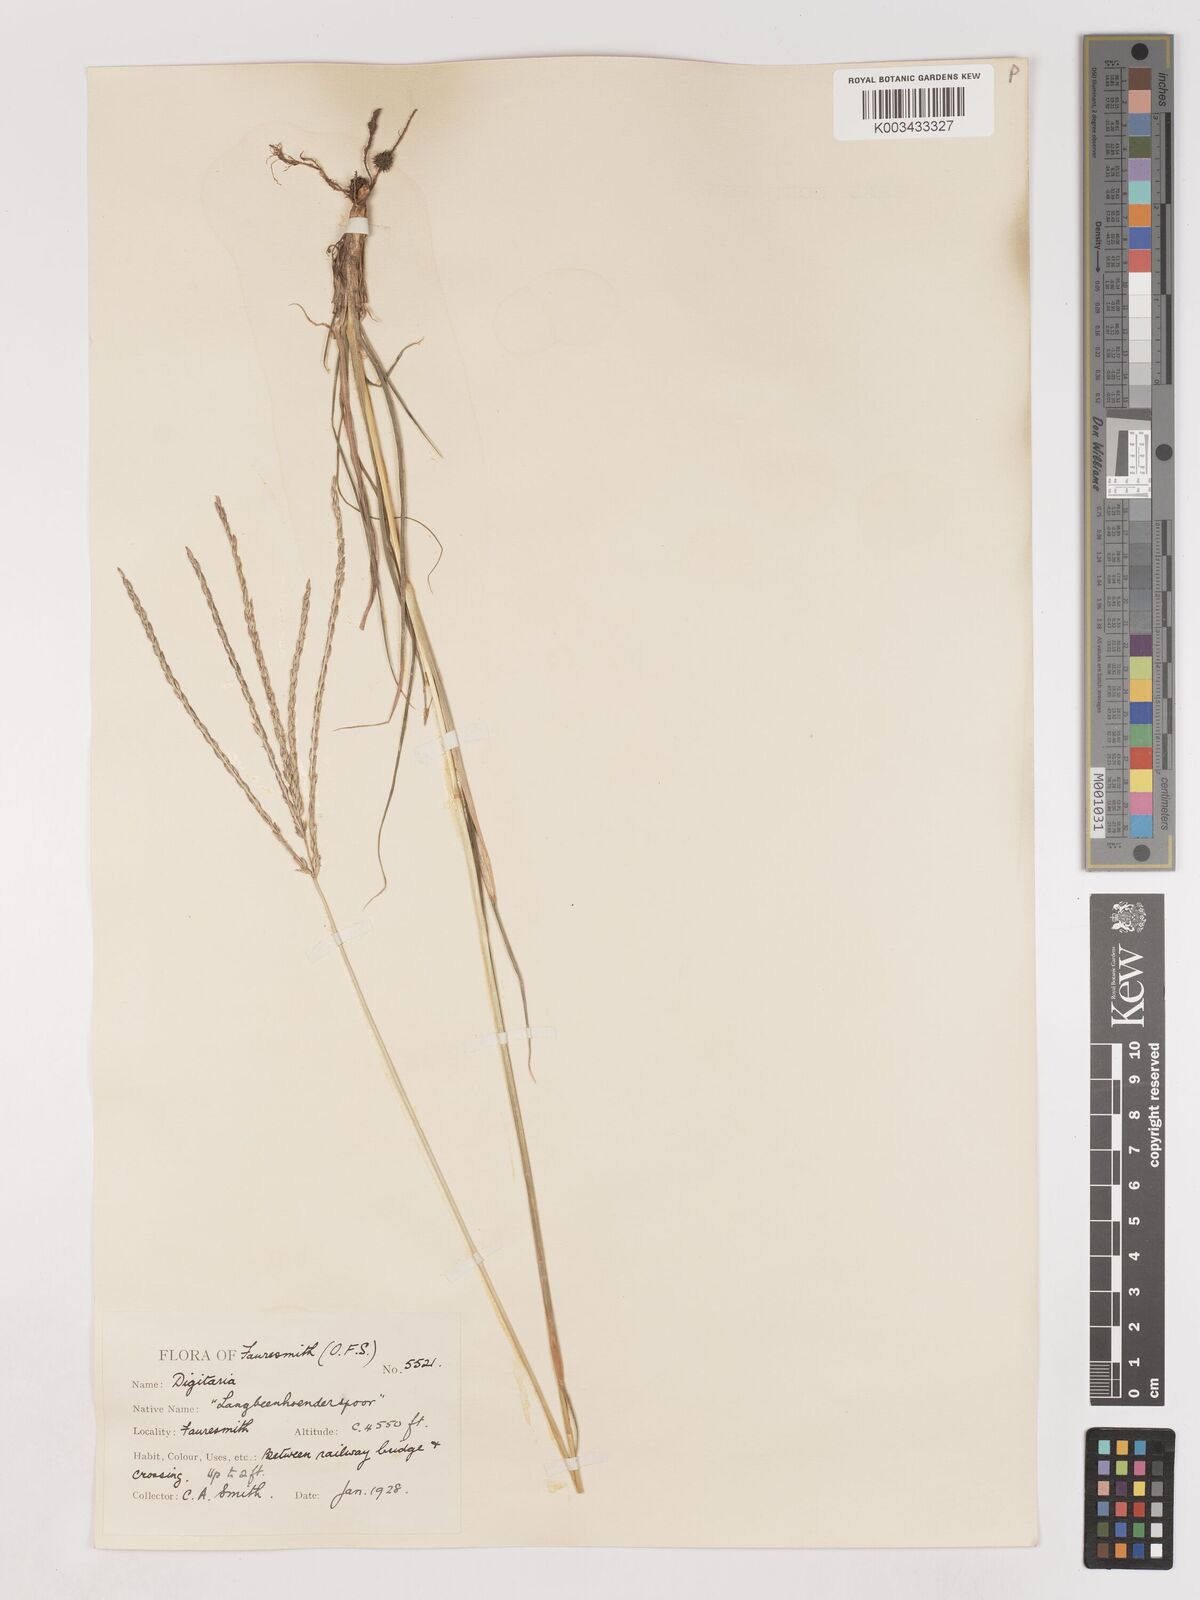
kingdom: Plantae
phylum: Tracheophyta
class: Liliopsida
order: Poales
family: Poaceae
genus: Digitaria
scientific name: Digitaria eriantha
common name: Digitgrass
